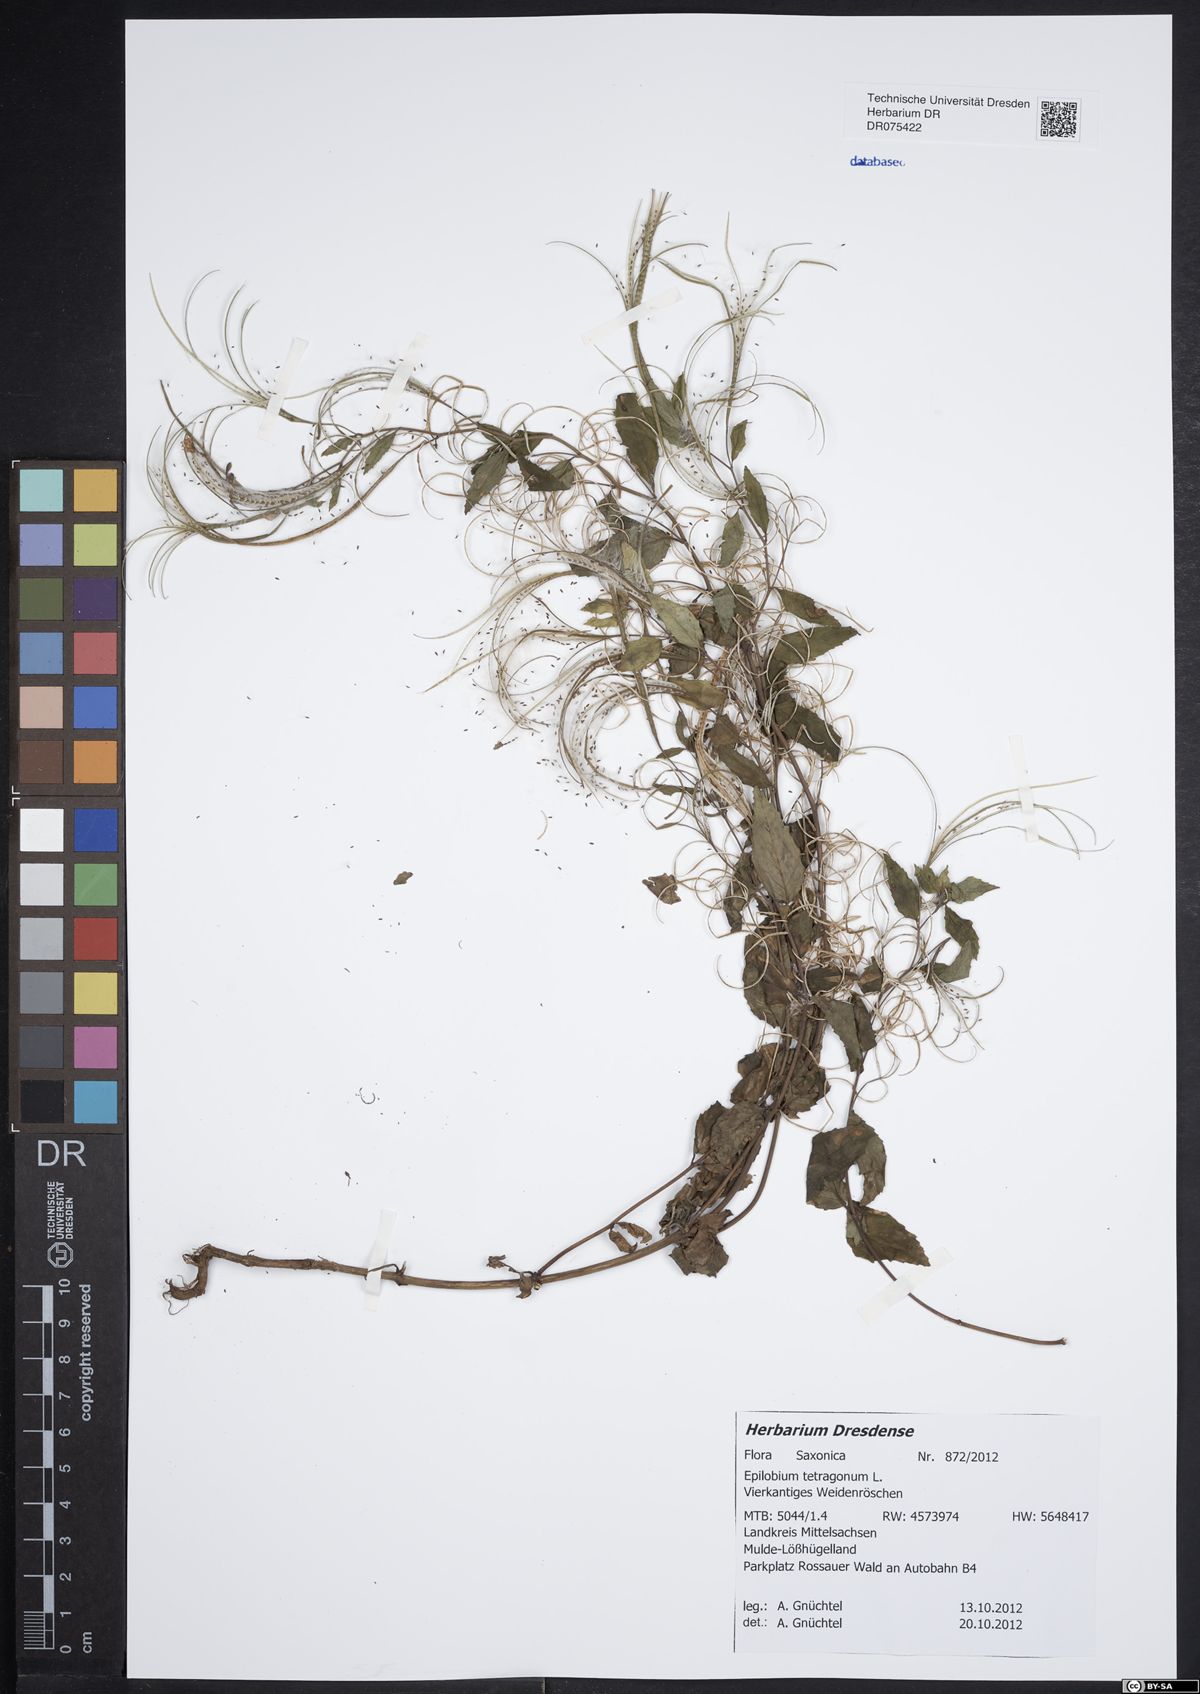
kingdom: Plantae
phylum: Tracheophyta
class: Magnoliopsida
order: Myrtales
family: Onagraceae
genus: Epilobium
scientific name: Epilobium tetragonum
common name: Square-stemmed willowherb
